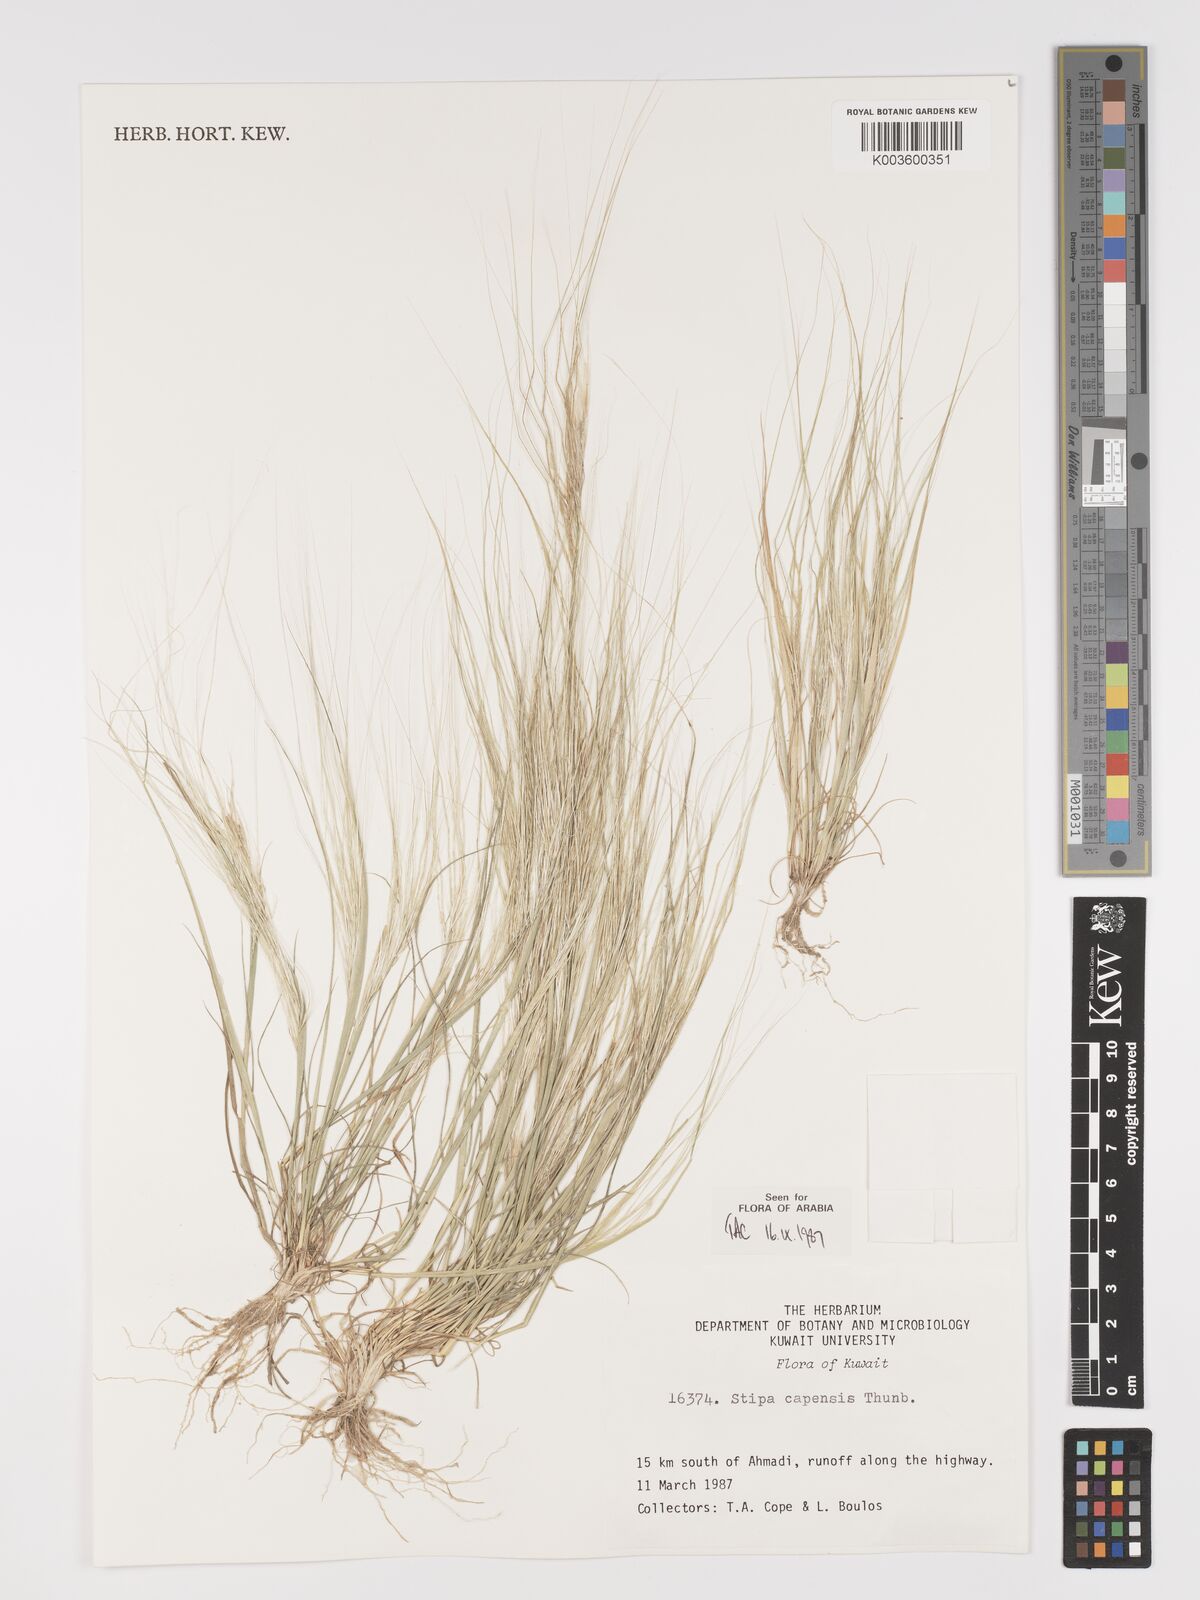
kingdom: Plantae
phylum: Tracheophyta
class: Liliopsida
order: Poales
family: Poaceae
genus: Stipellula
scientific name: Stipellula capensis
